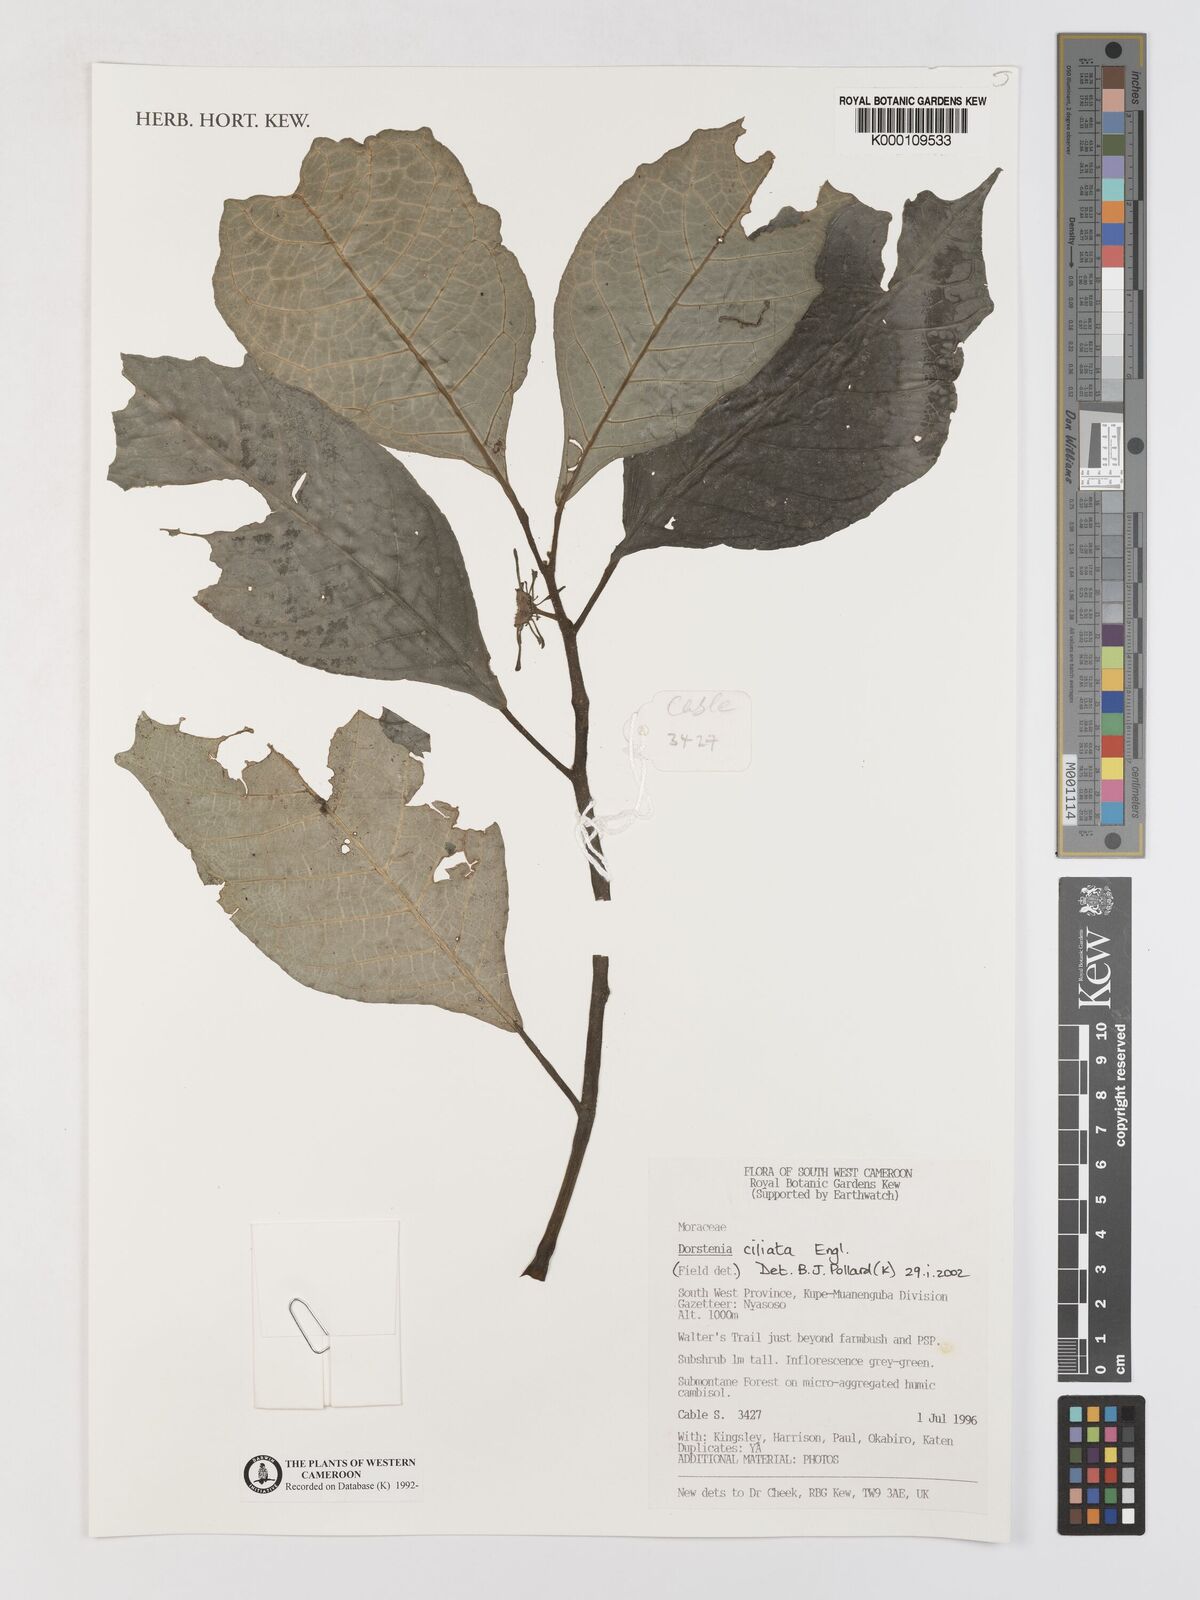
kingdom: Plantae
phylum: Tracheophyta
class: Magnoliopsida
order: Rosales
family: Moraceae
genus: Dorstenia
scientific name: Dorstenia ciliata
